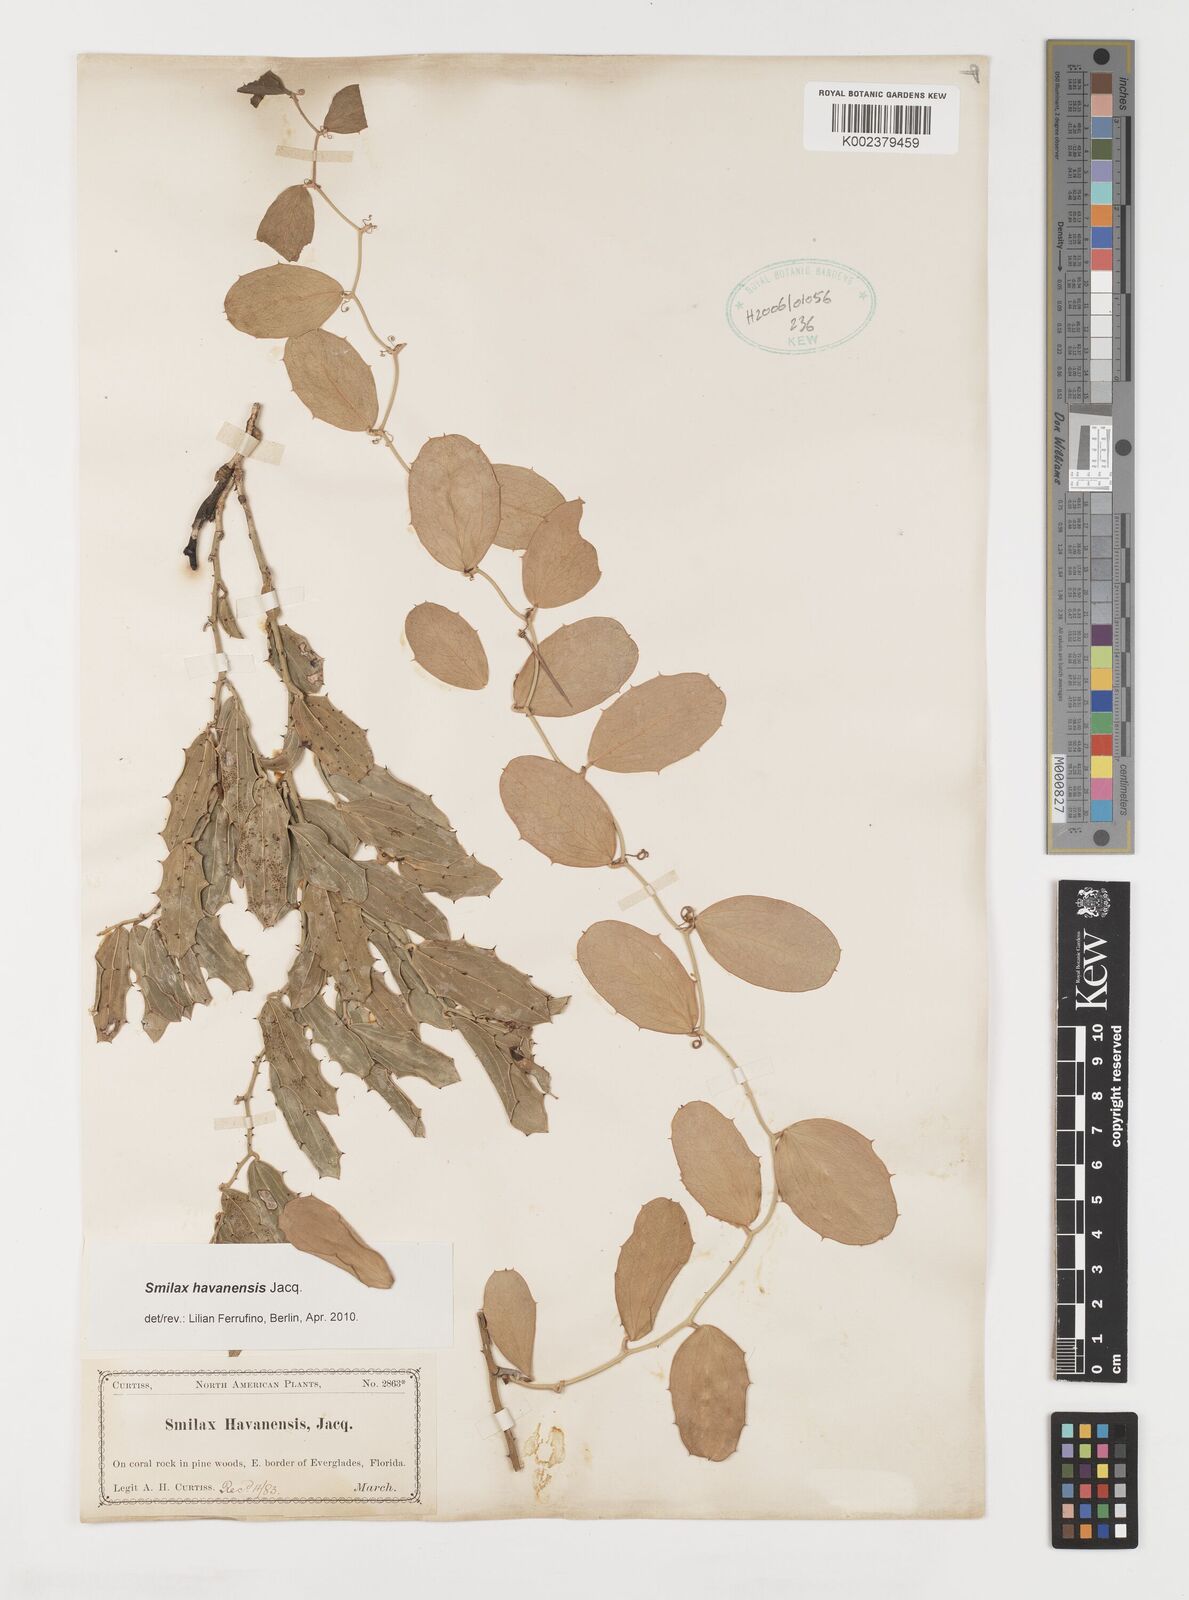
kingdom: Plantae
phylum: Tracheophyta
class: Liliopsida
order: Liliales
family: Smilacaceae
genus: Smilax
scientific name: Smilax havanensis
